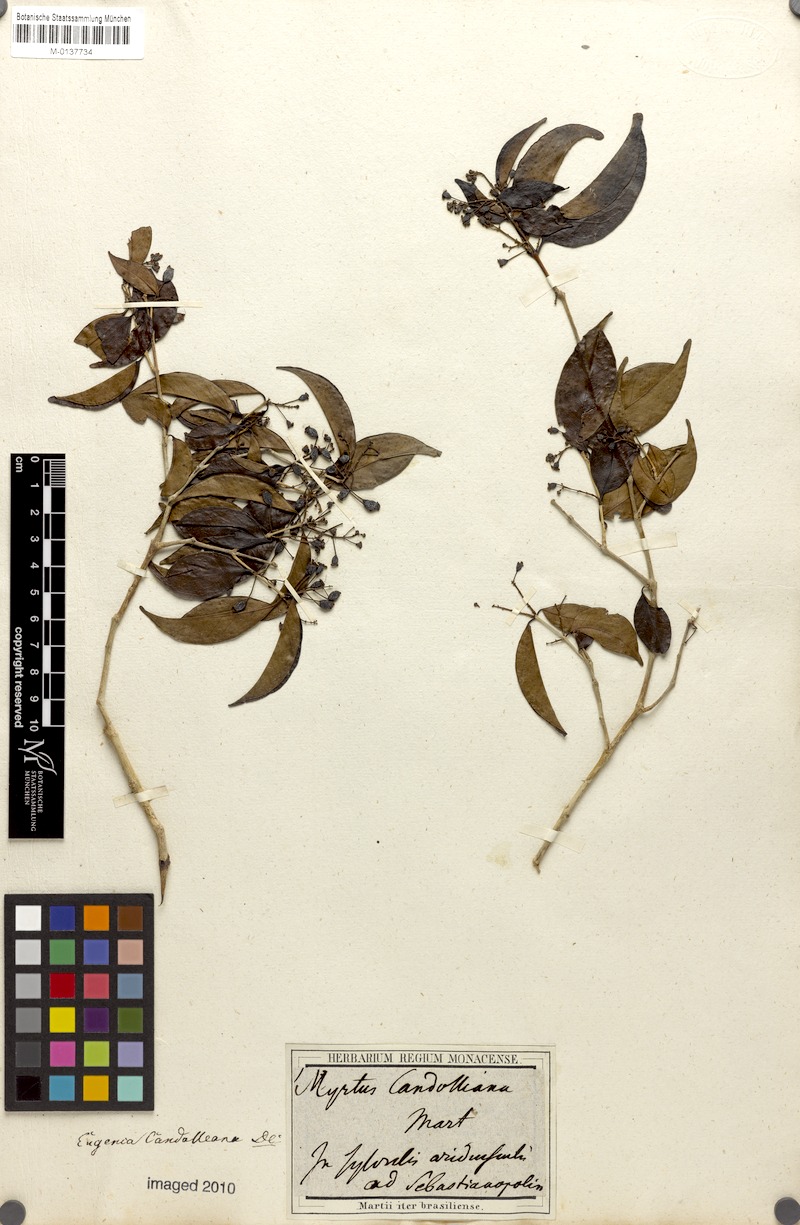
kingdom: Plantae
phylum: Tracheophyta
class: Magnoliopsida
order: Myrtales
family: Myrtaceae
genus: Eugenia
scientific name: Eugenia candolleana
